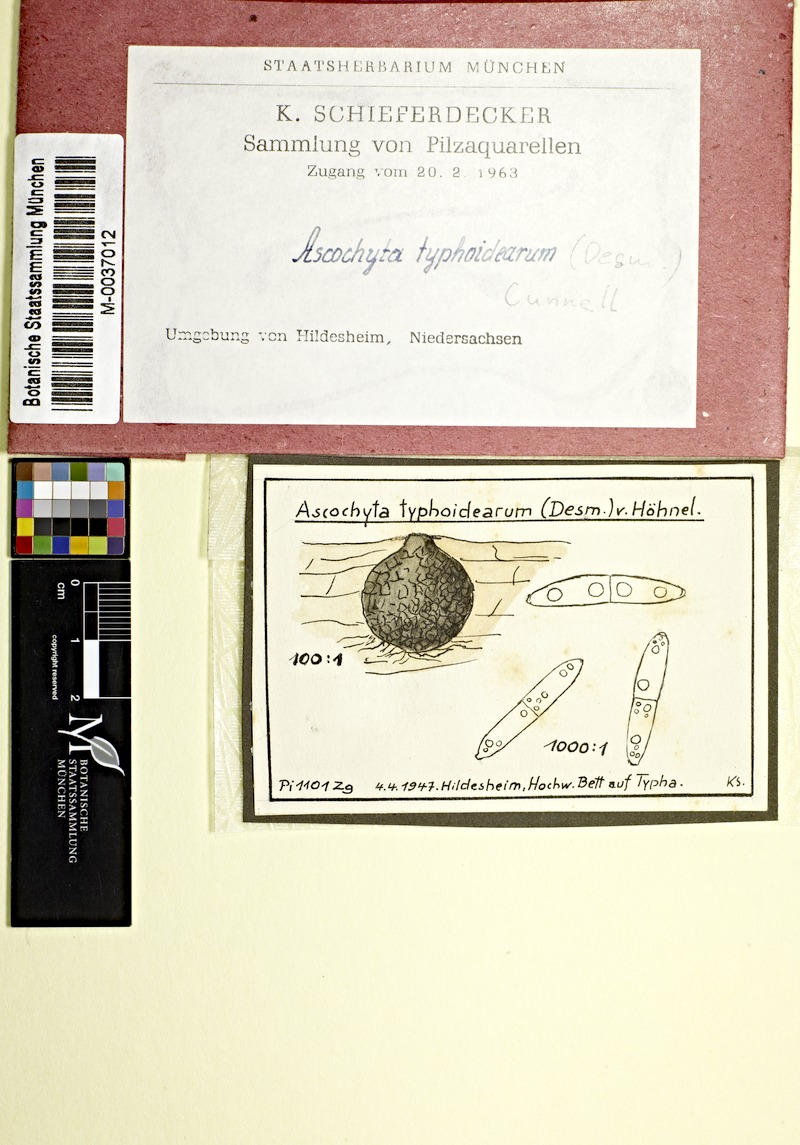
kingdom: Plantae
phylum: Tracheophyta
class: Liliopsida
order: Poales
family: Typhaceae
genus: Typha
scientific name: Typha
